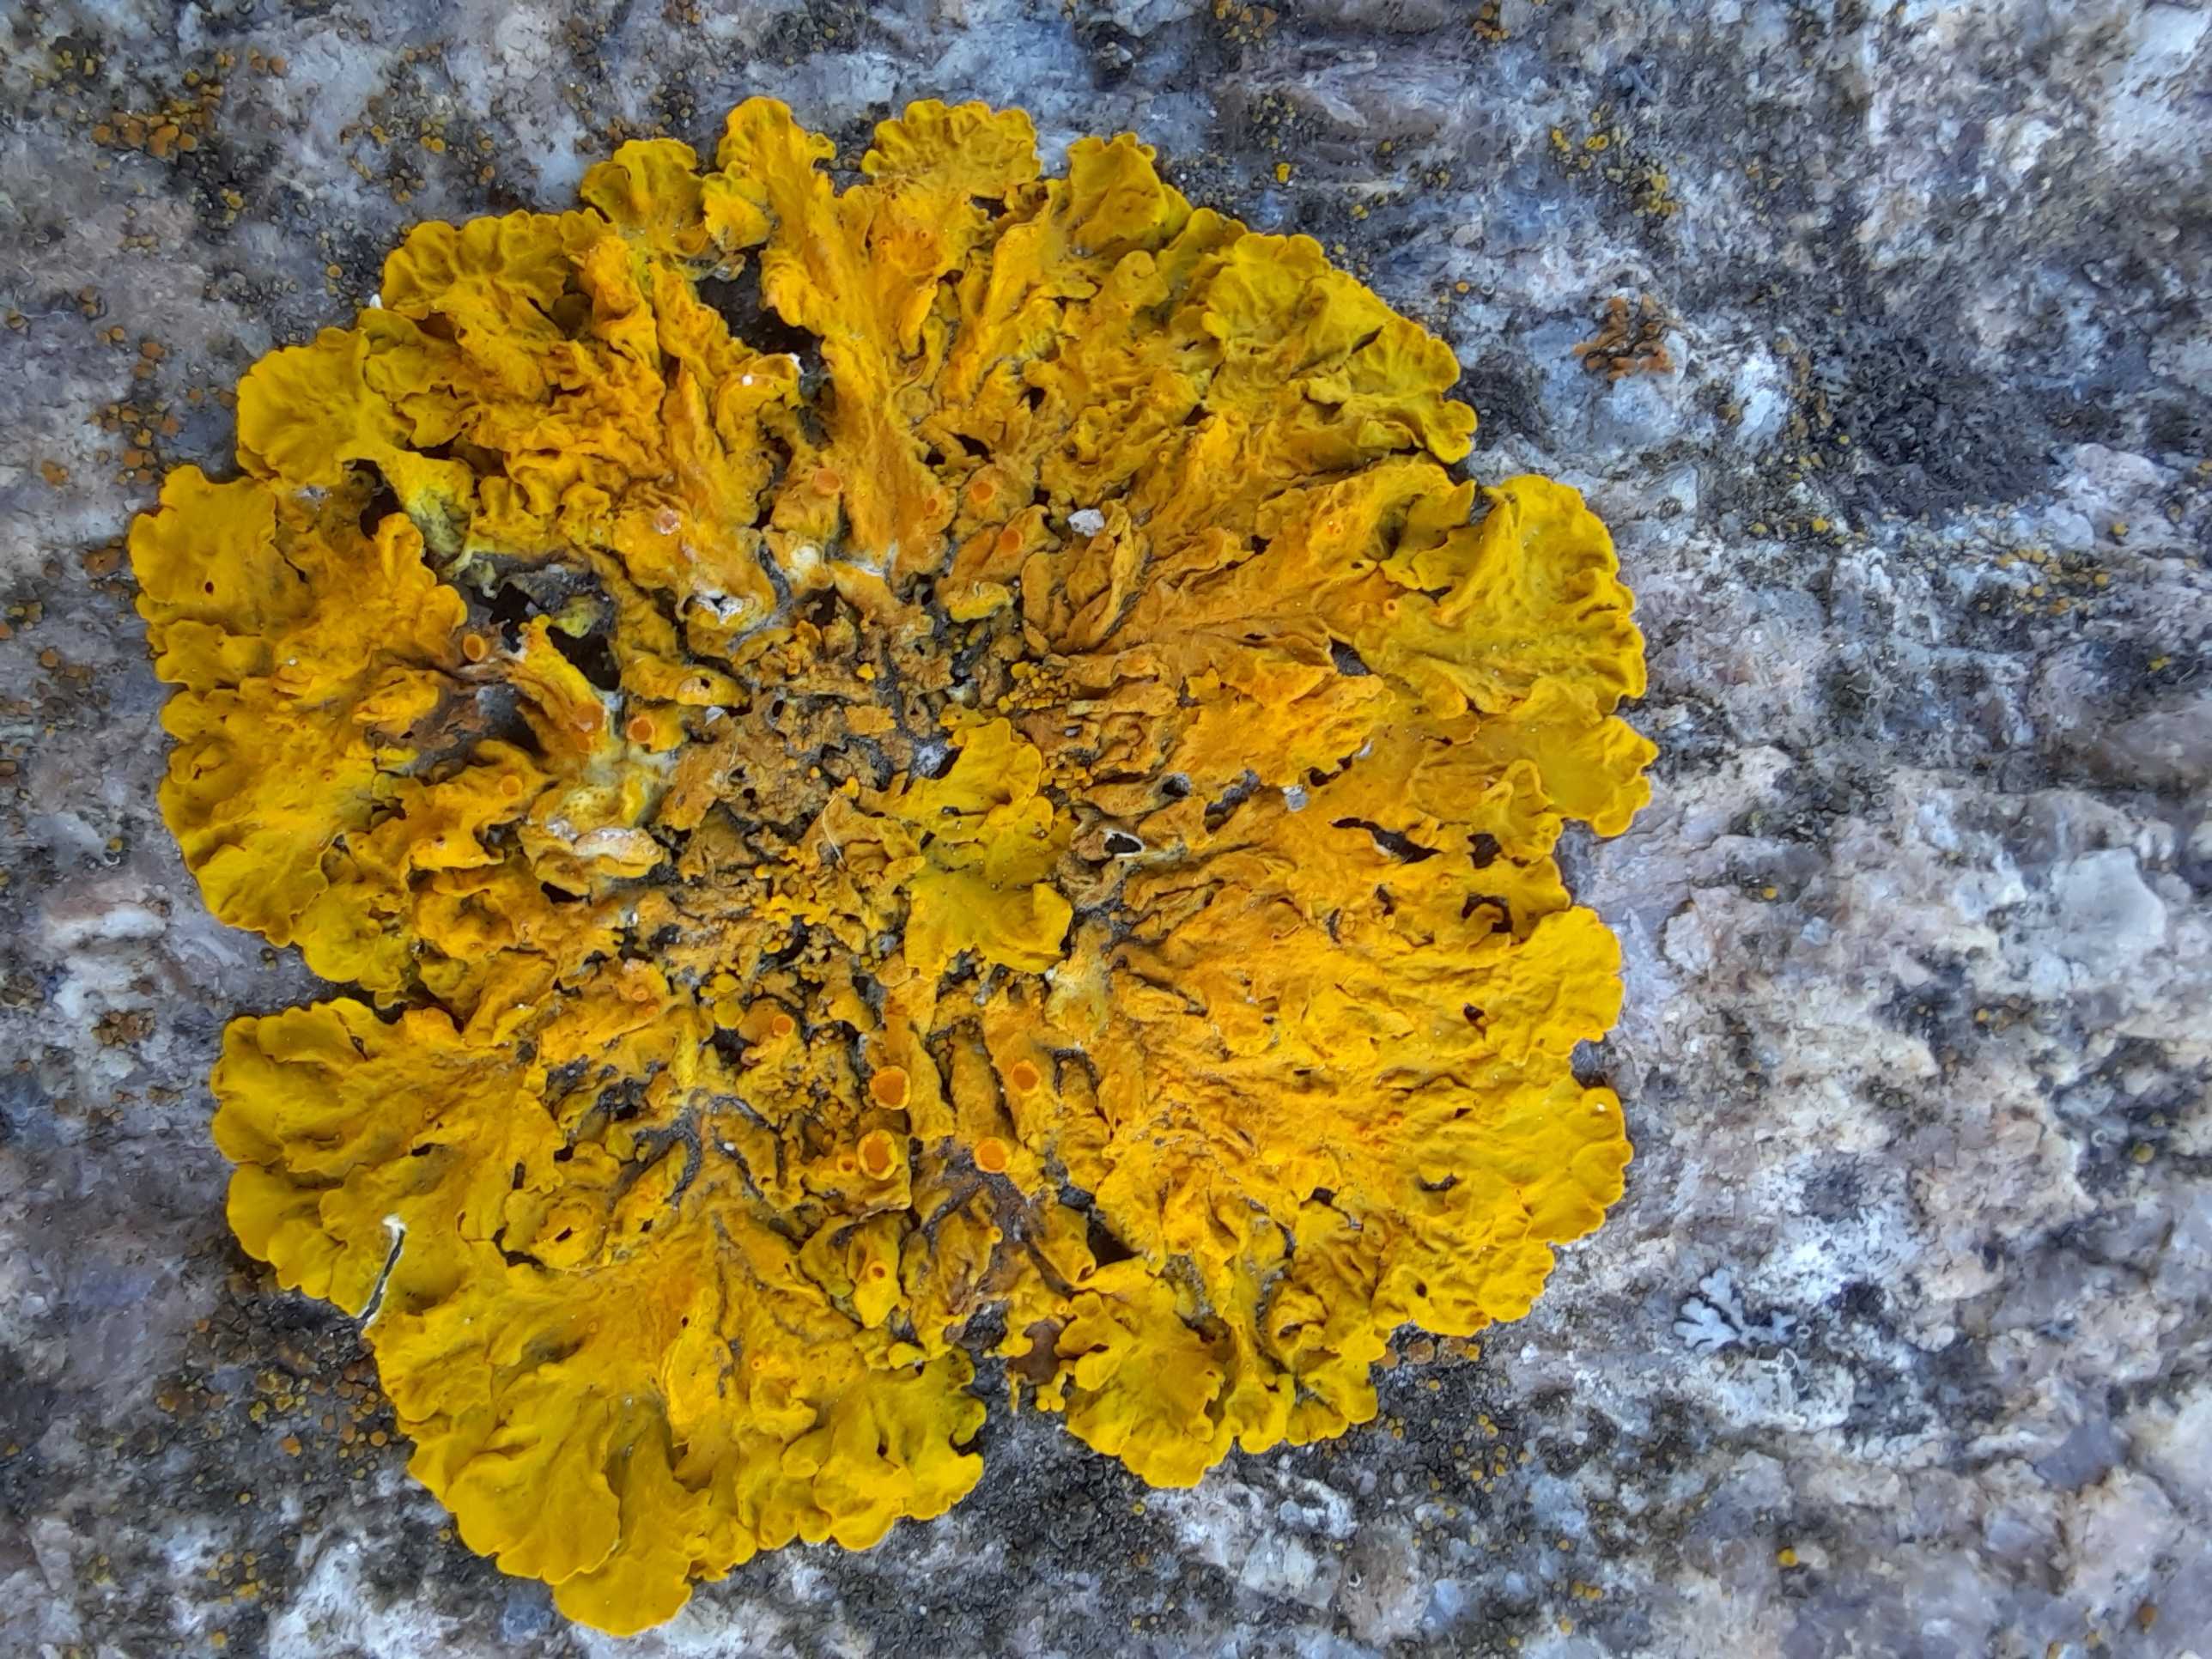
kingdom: Fungi
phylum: Ascomycota
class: Lecanoromycetes
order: Teloschistales
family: Teloschistaceae
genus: Xanthoria
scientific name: Xanthoria parietina
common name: almindelig væggelav
